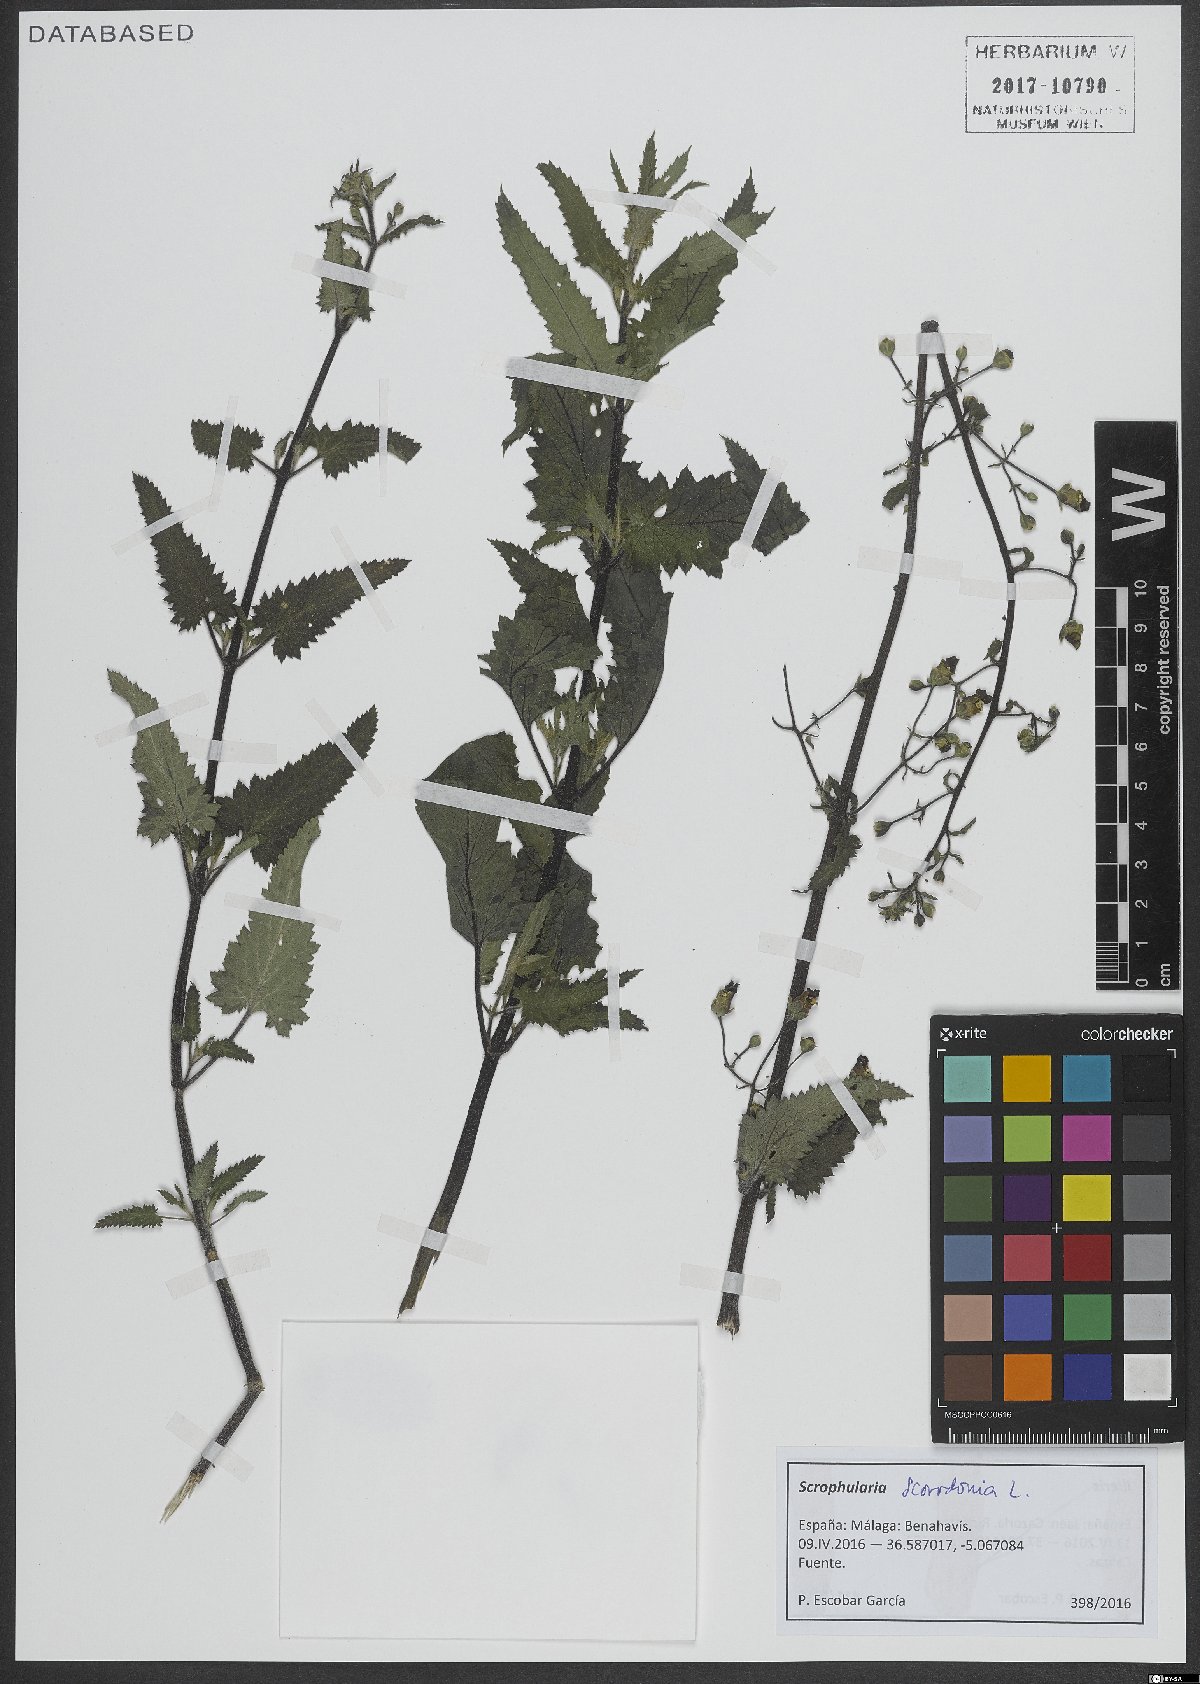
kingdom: Plantae
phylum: Tracheophyta
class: Magnoliopsida
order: Lamiales
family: Scrophulariaceae
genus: Scrophularia
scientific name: Scrophularia scorodonia
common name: Balm-leaved figwort
